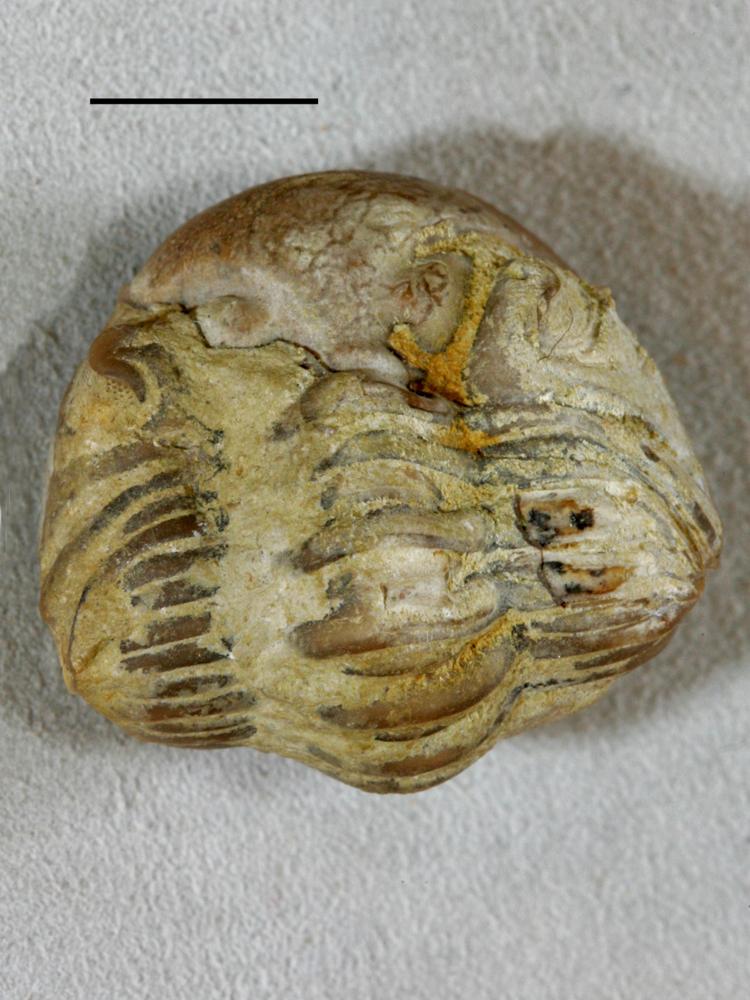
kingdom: Animalia
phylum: Arthropoda
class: Trilobita
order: Phacopida
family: Pterygometopidae
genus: Chasmops
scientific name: Chasmops odini
